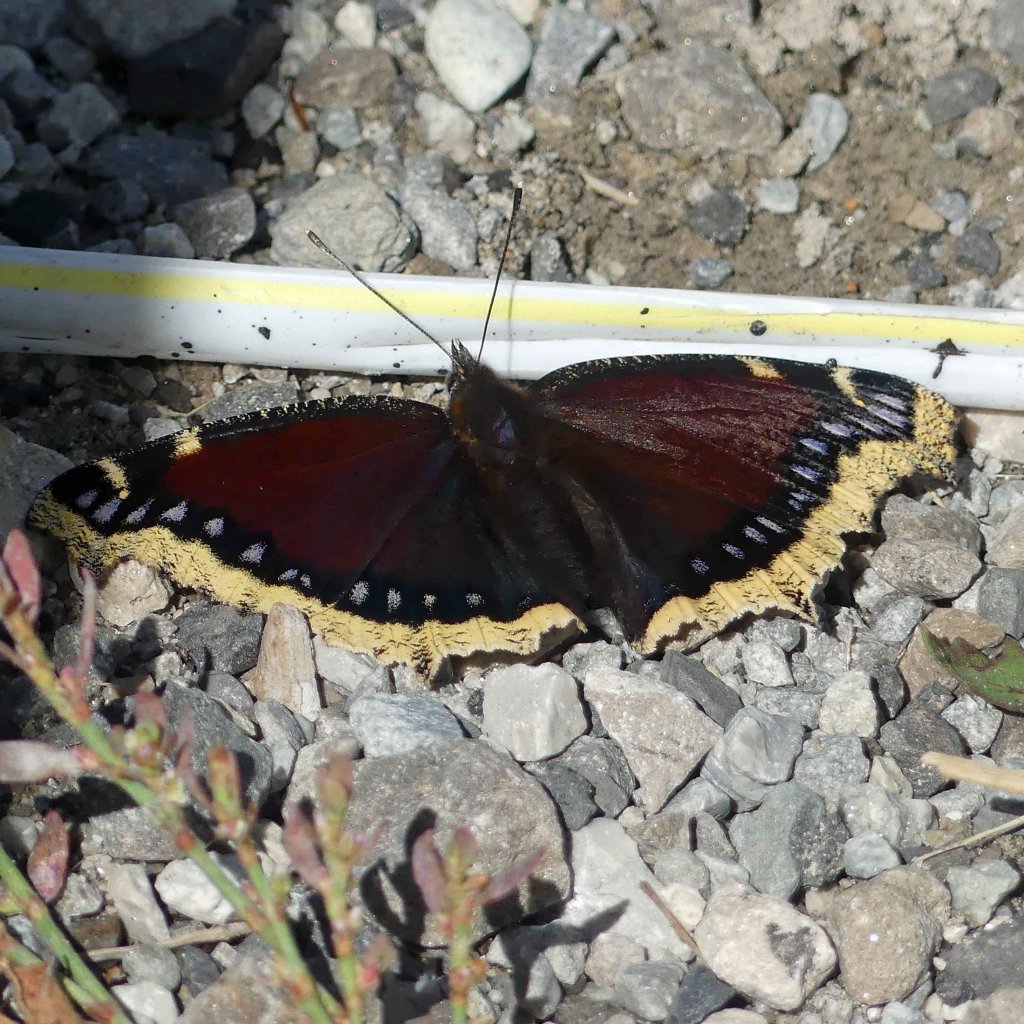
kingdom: Animalia
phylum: Arthropoda
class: Insecta
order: Lepidoptera
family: Nymphalidae
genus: Nymphalis
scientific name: Nymphalis antiopa
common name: Mourning Cloak
